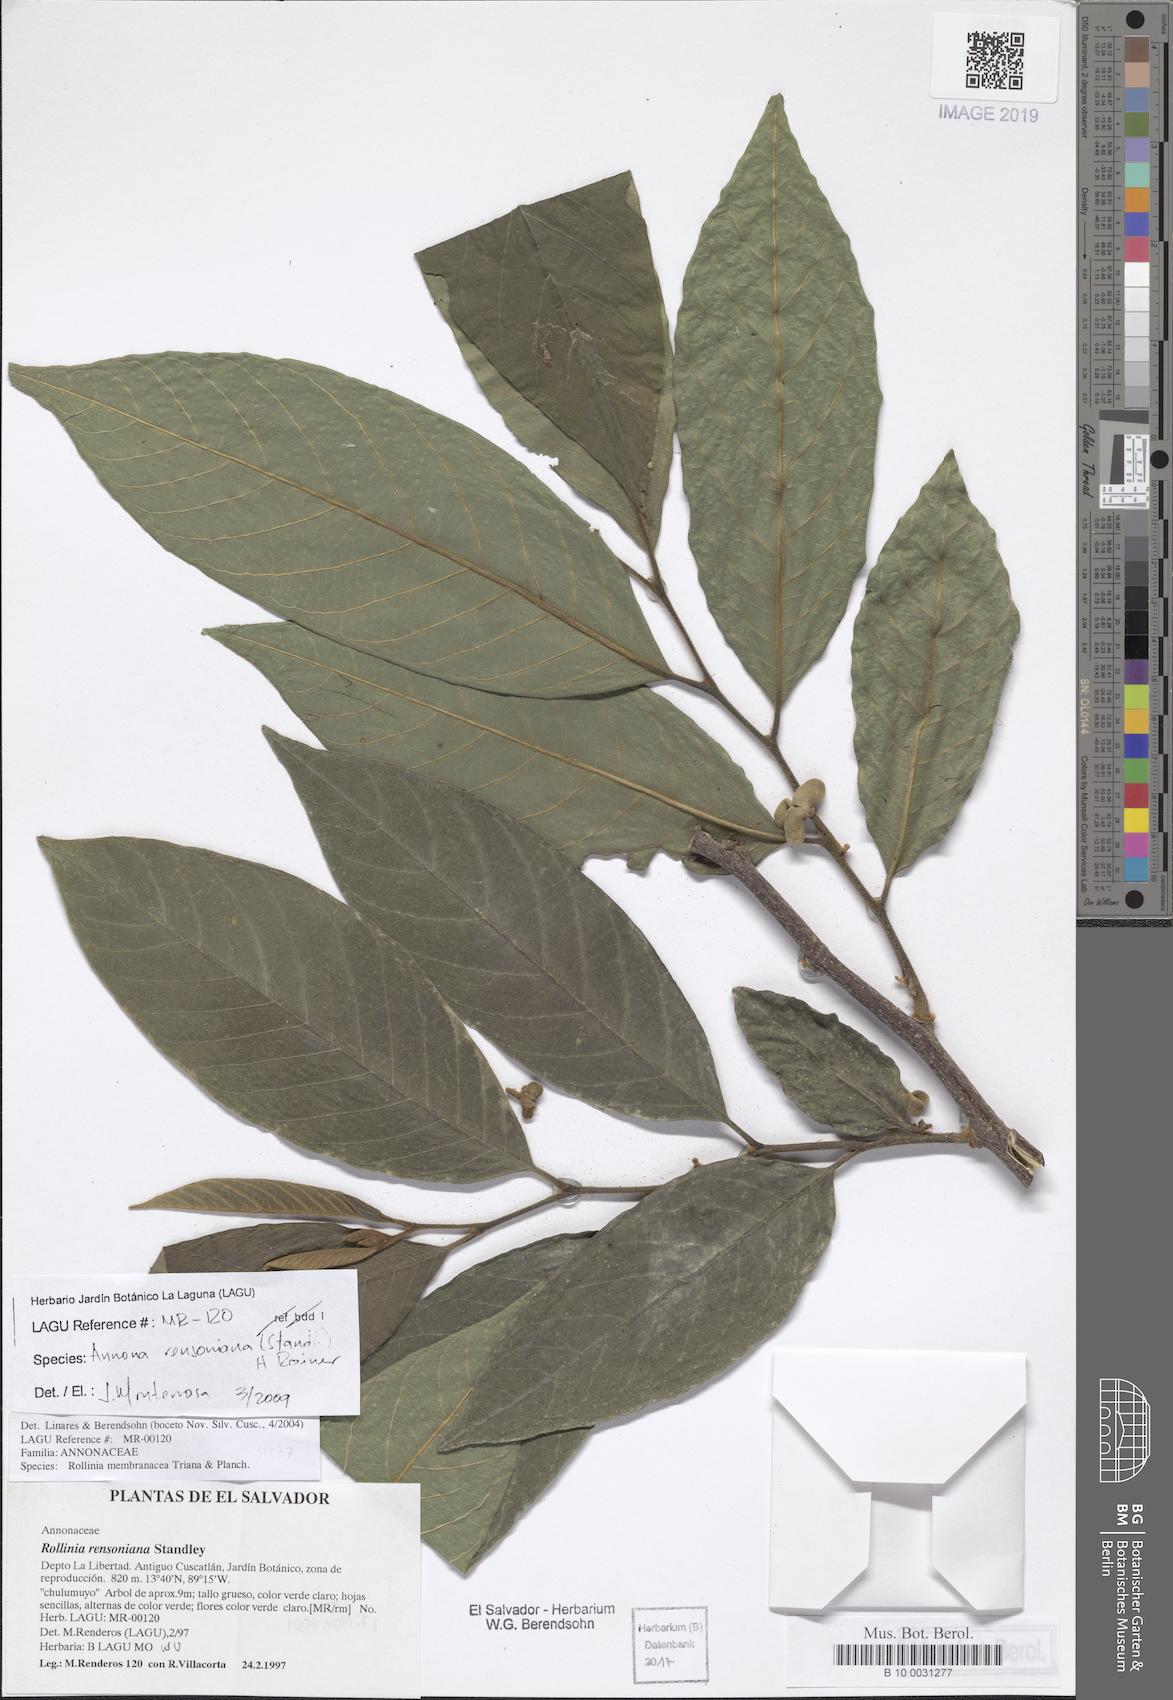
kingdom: Plantae
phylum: Tracheophyta
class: Magnoliopsida
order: Magnoliales
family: Annonaceae
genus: Annona
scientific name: Annona rensoniana
